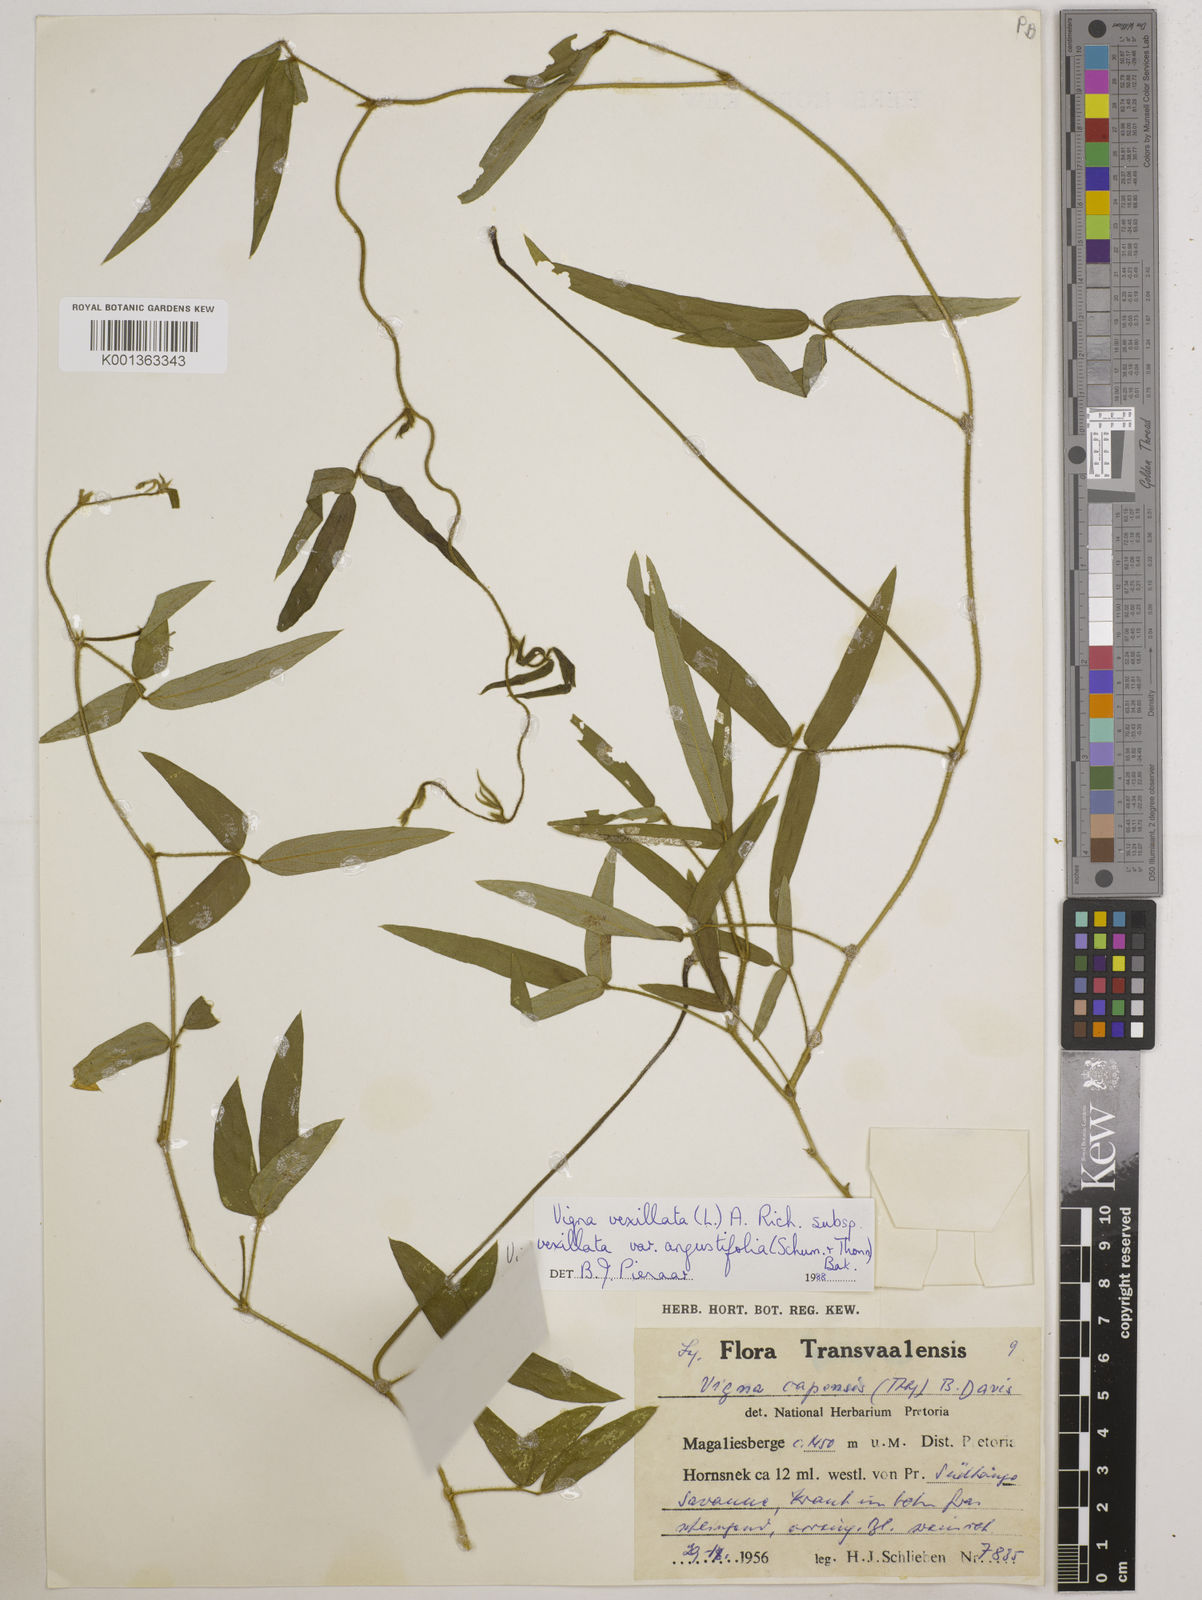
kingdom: Plantae
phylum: Tracheophyta
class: Magnoliopsida
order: Fabales
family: Fabaceae
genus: Vigna
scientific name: Vigna
